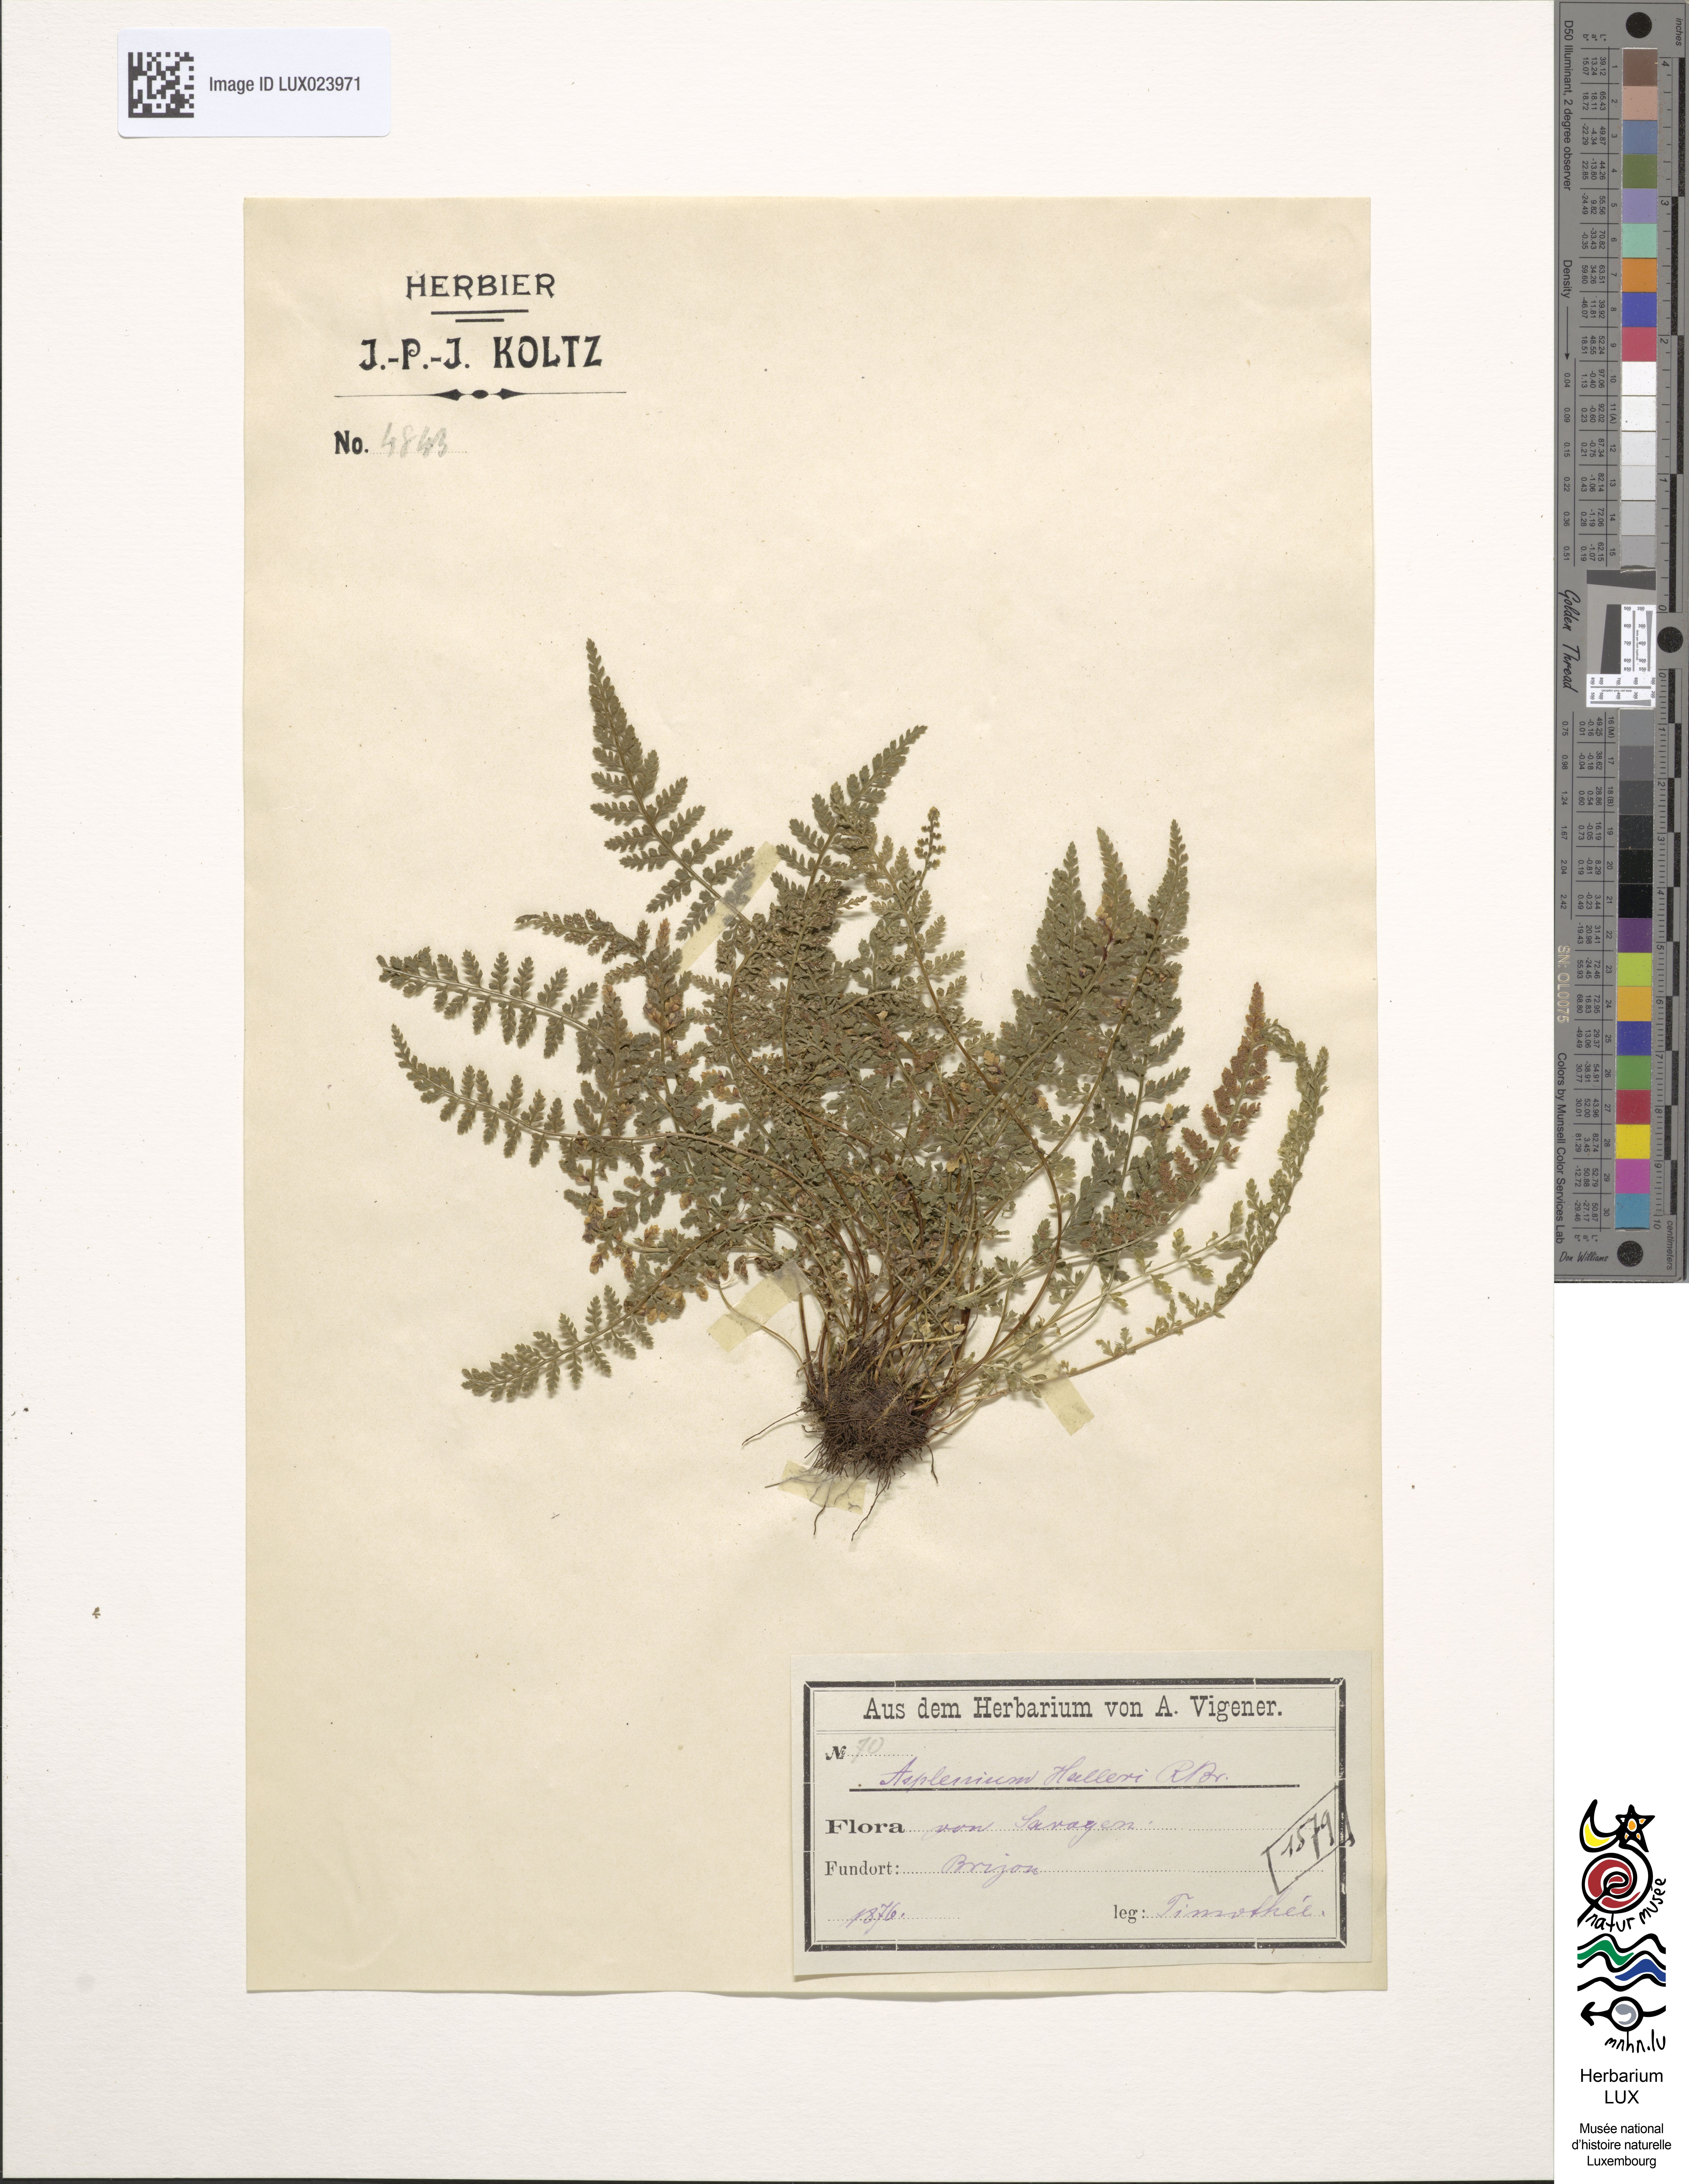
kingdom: Plantae
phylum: Tracheophyta
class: Polypodiopsida
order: Polypodiales
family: Aspleniaceae
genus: Asplenium
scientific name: Asplenium fontanum
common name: Fountain spleenwort
